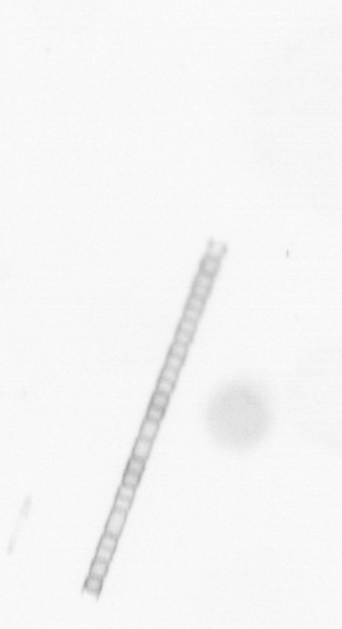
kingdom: Chromista
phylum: Ochrophyta
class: Bacillariophyceae
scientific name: Bacillariophyceae
